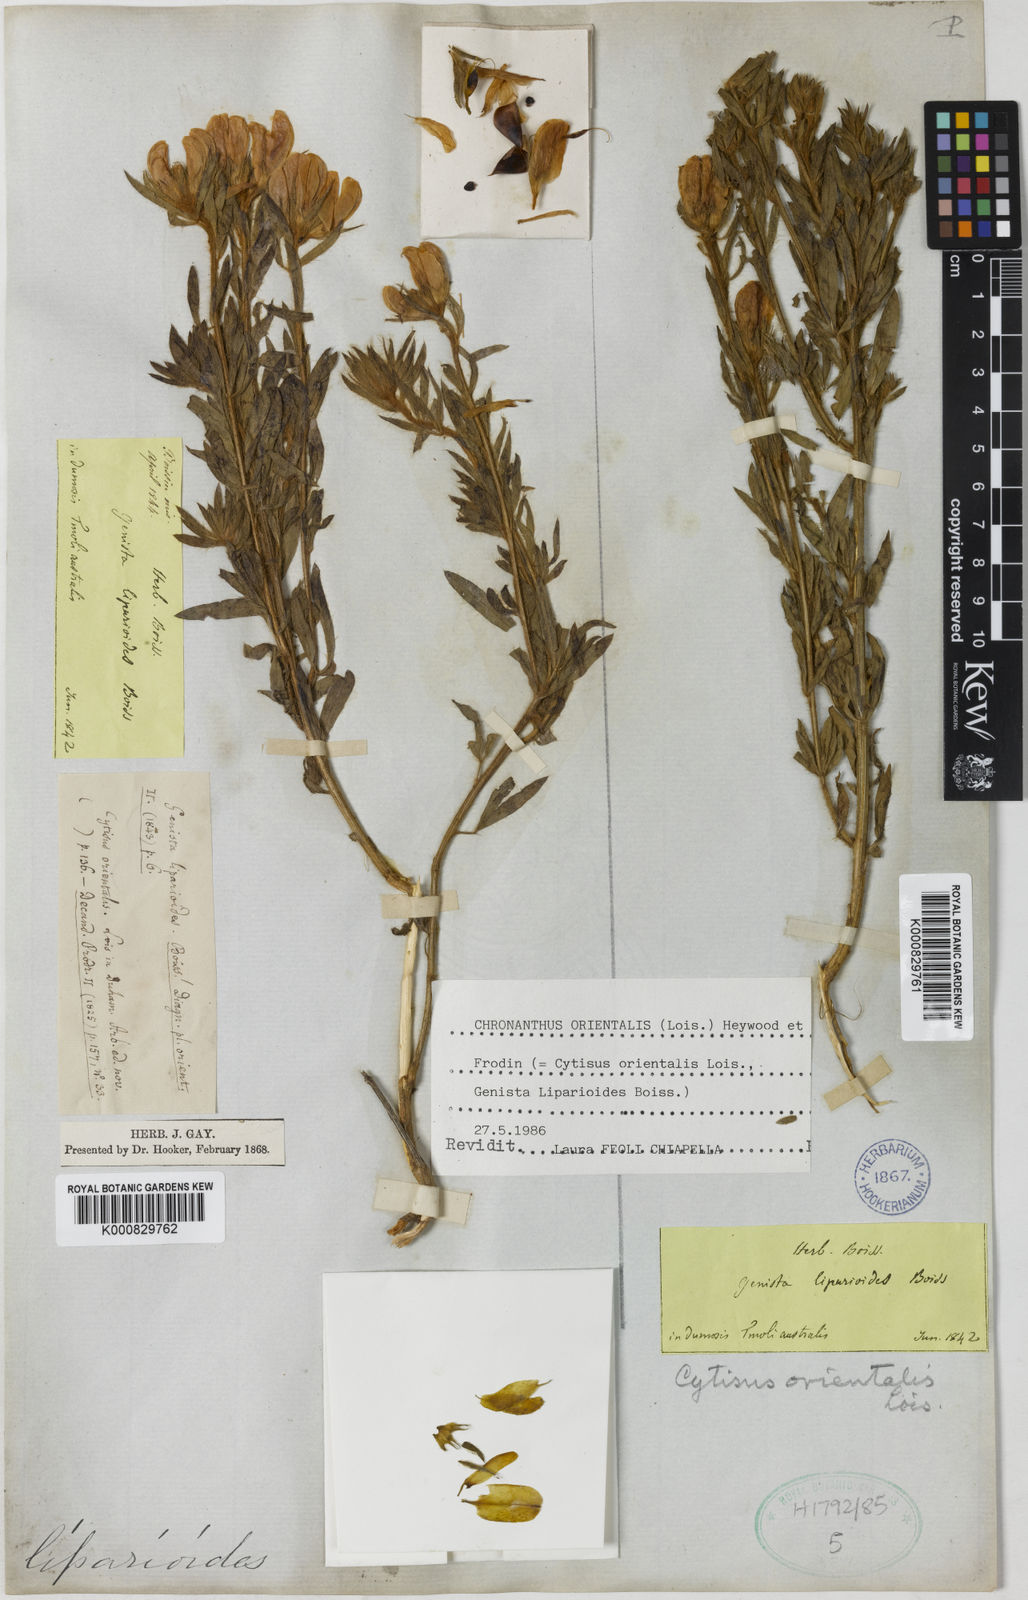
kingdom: Plantae
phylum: Tracheophyta
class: Magnoliopsida
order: Fabales
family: Fabaceae
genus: Cytisus
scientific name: Cytisus orientalis
